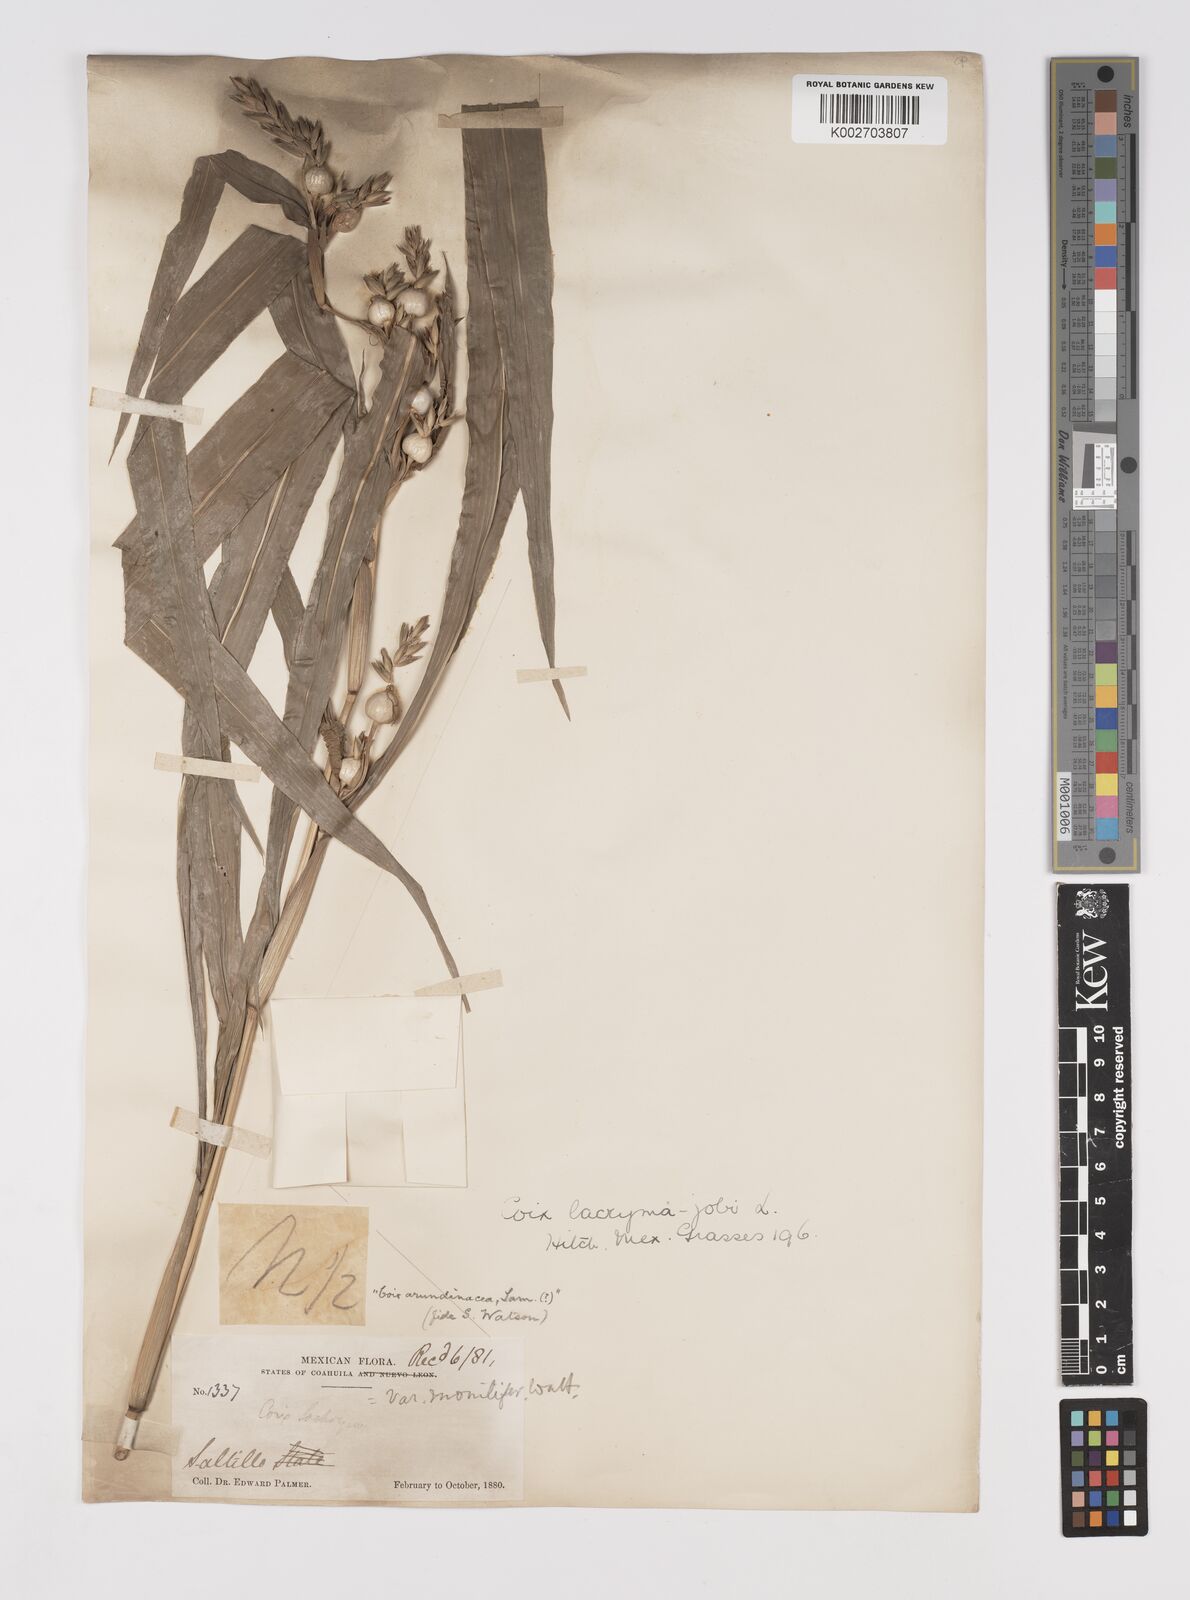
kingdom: Plantae
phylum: Tracheophyta
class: Liliopsida
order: Poales
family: Poaceae
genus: Coix
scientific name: Coix lacryma-jobi
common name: Job's tears
